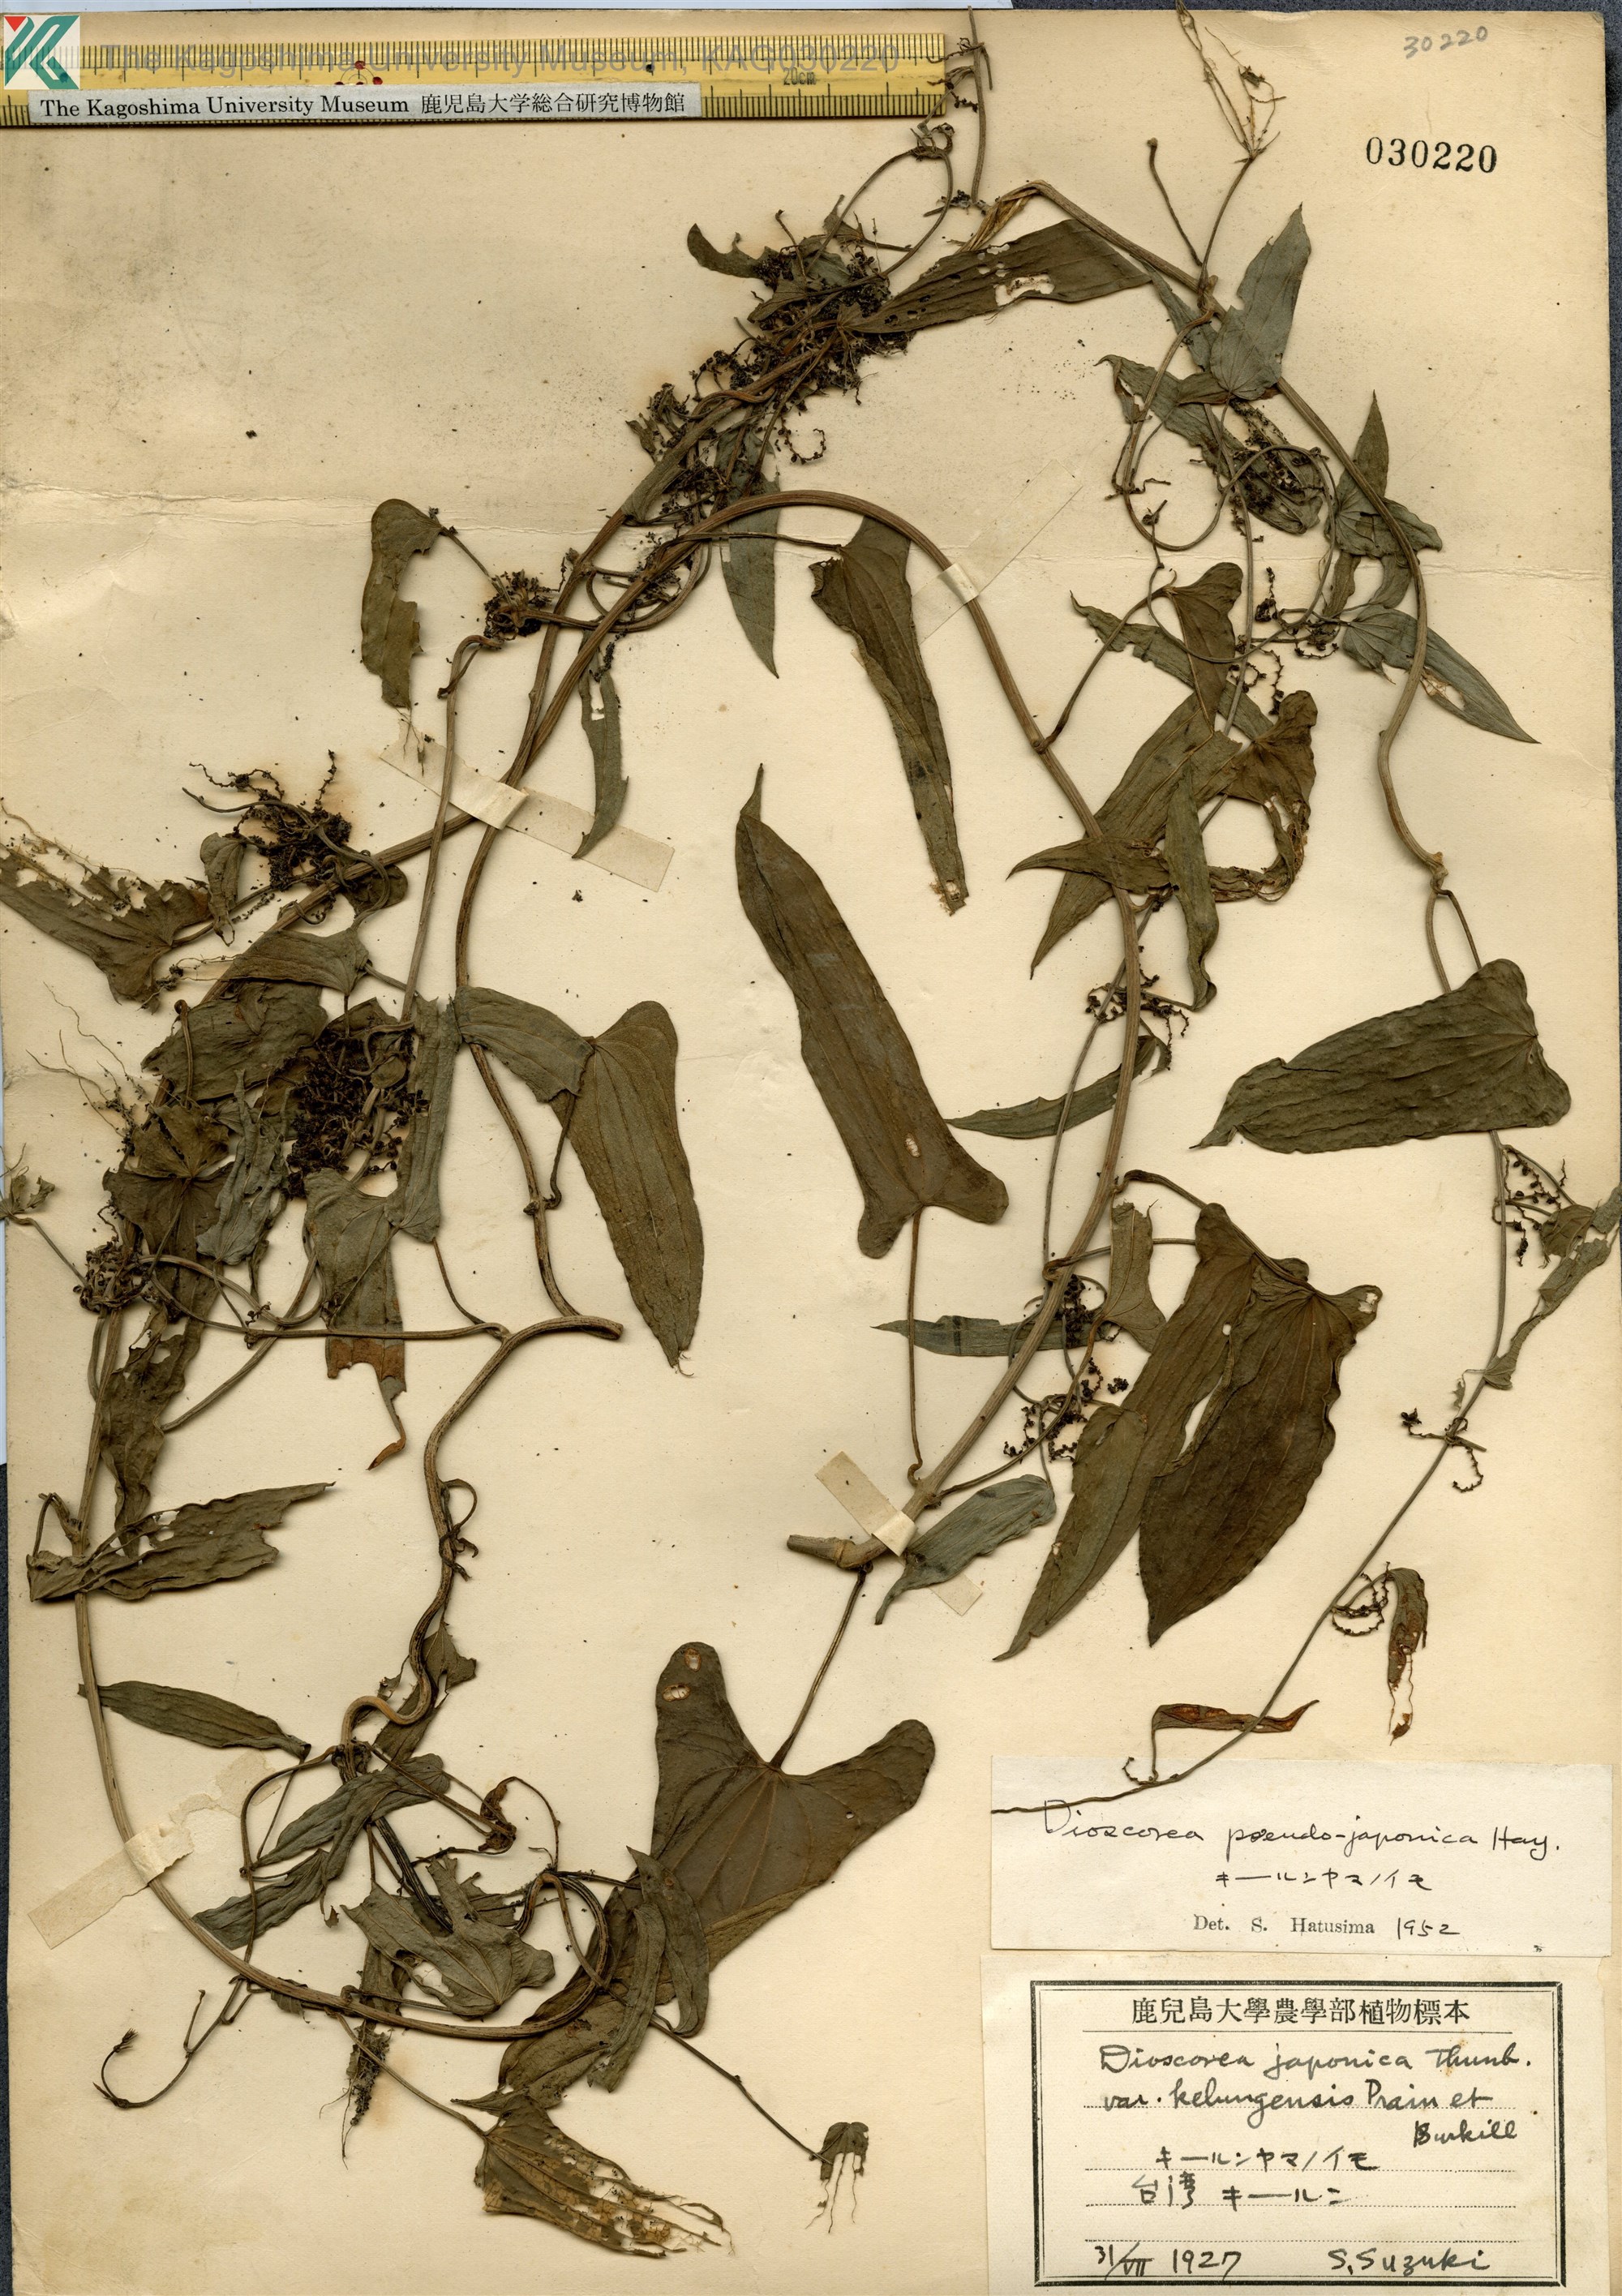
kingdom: Plantae
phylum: Tracheophyta
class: Liliopsida
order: Dioscoreales
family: Dioscoreaceae
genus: Dioscorea
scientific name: Dioscorea pseudojaponica
